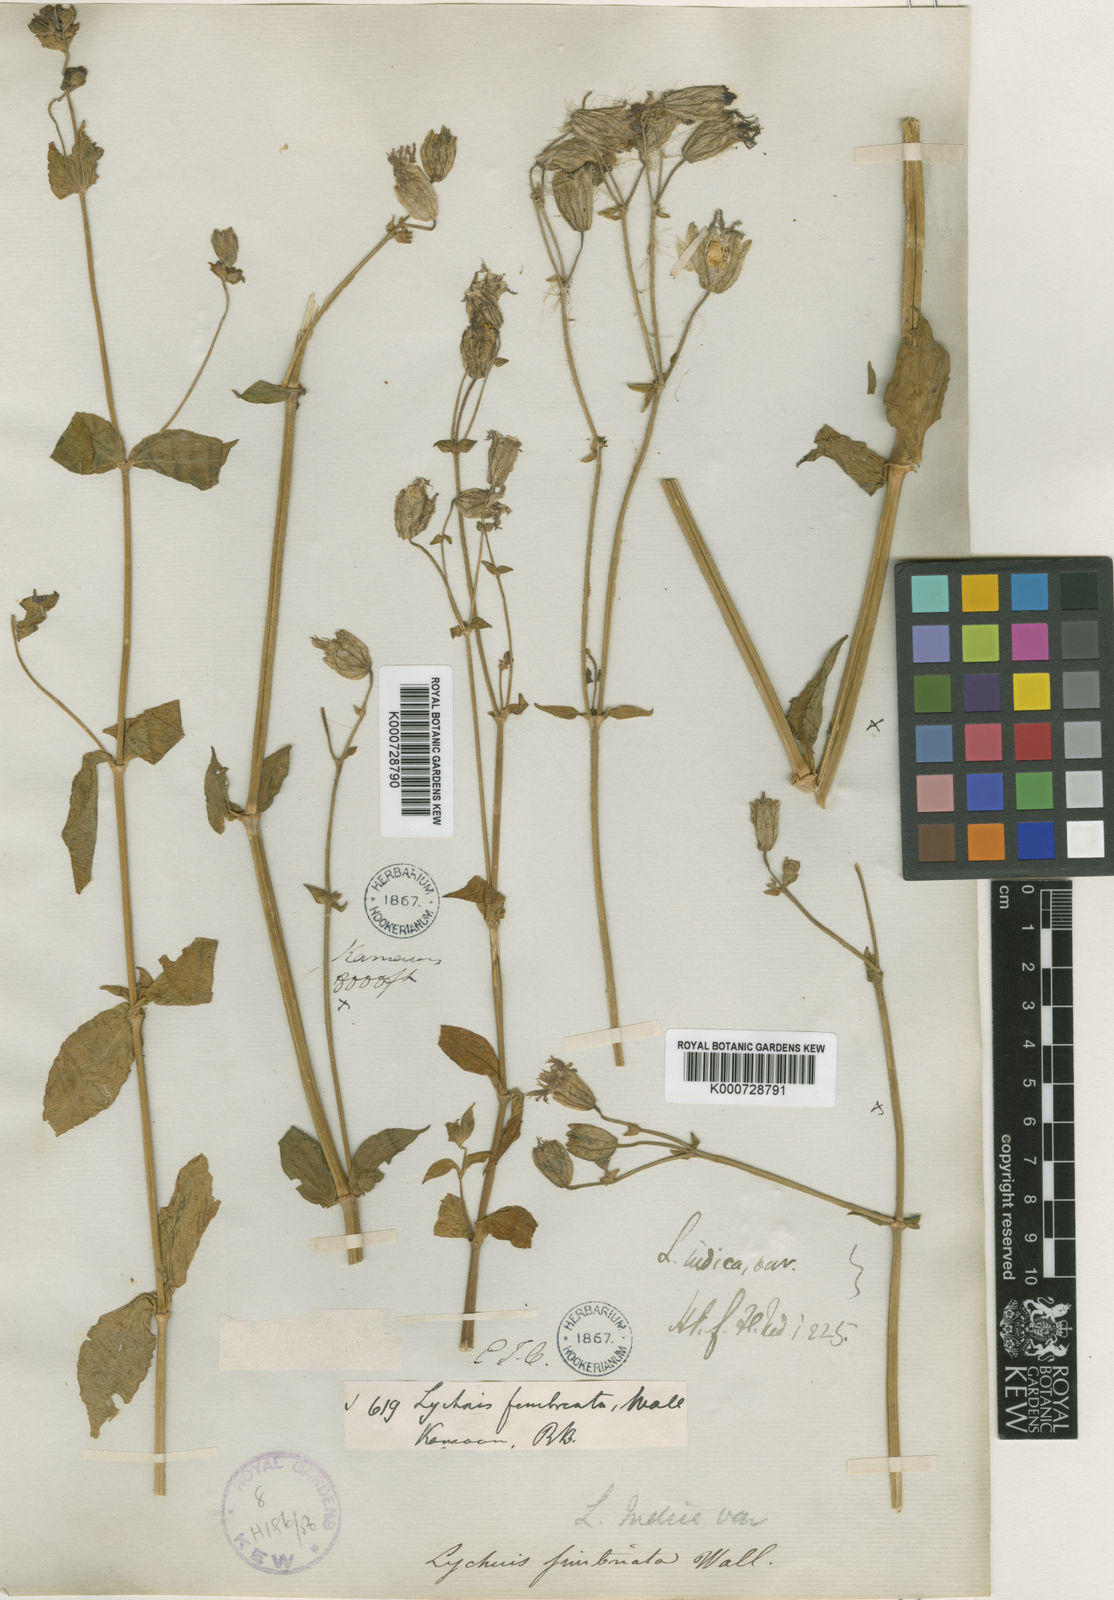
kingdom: Plantae
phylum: Tracheophyta
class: Magnoliopsida
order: Caryophyllales
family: Caryophyllaceae
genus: Silene
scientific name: Silene edgeworthii
